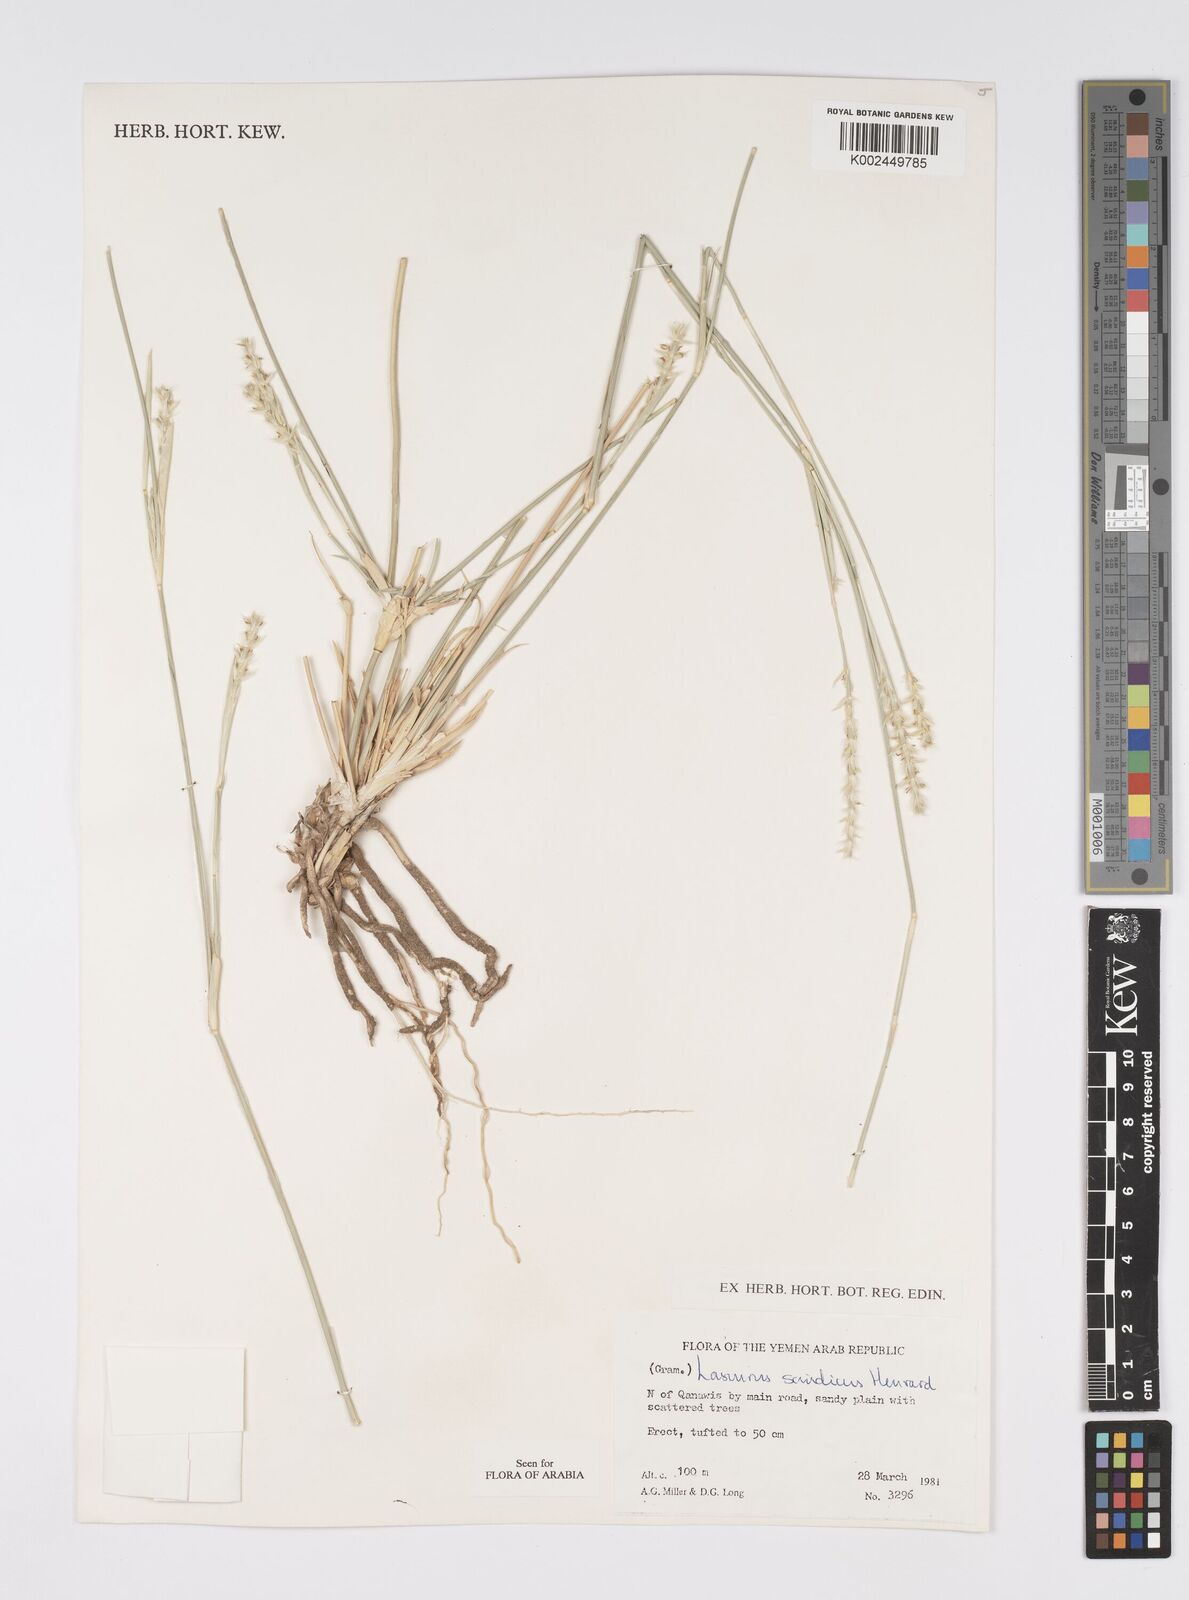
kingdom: Plantae
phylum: Tracheophyta
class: Liliopsida
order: Poales
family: Poaceae
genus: Lasiurus
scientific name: Lasiurus scindicus
